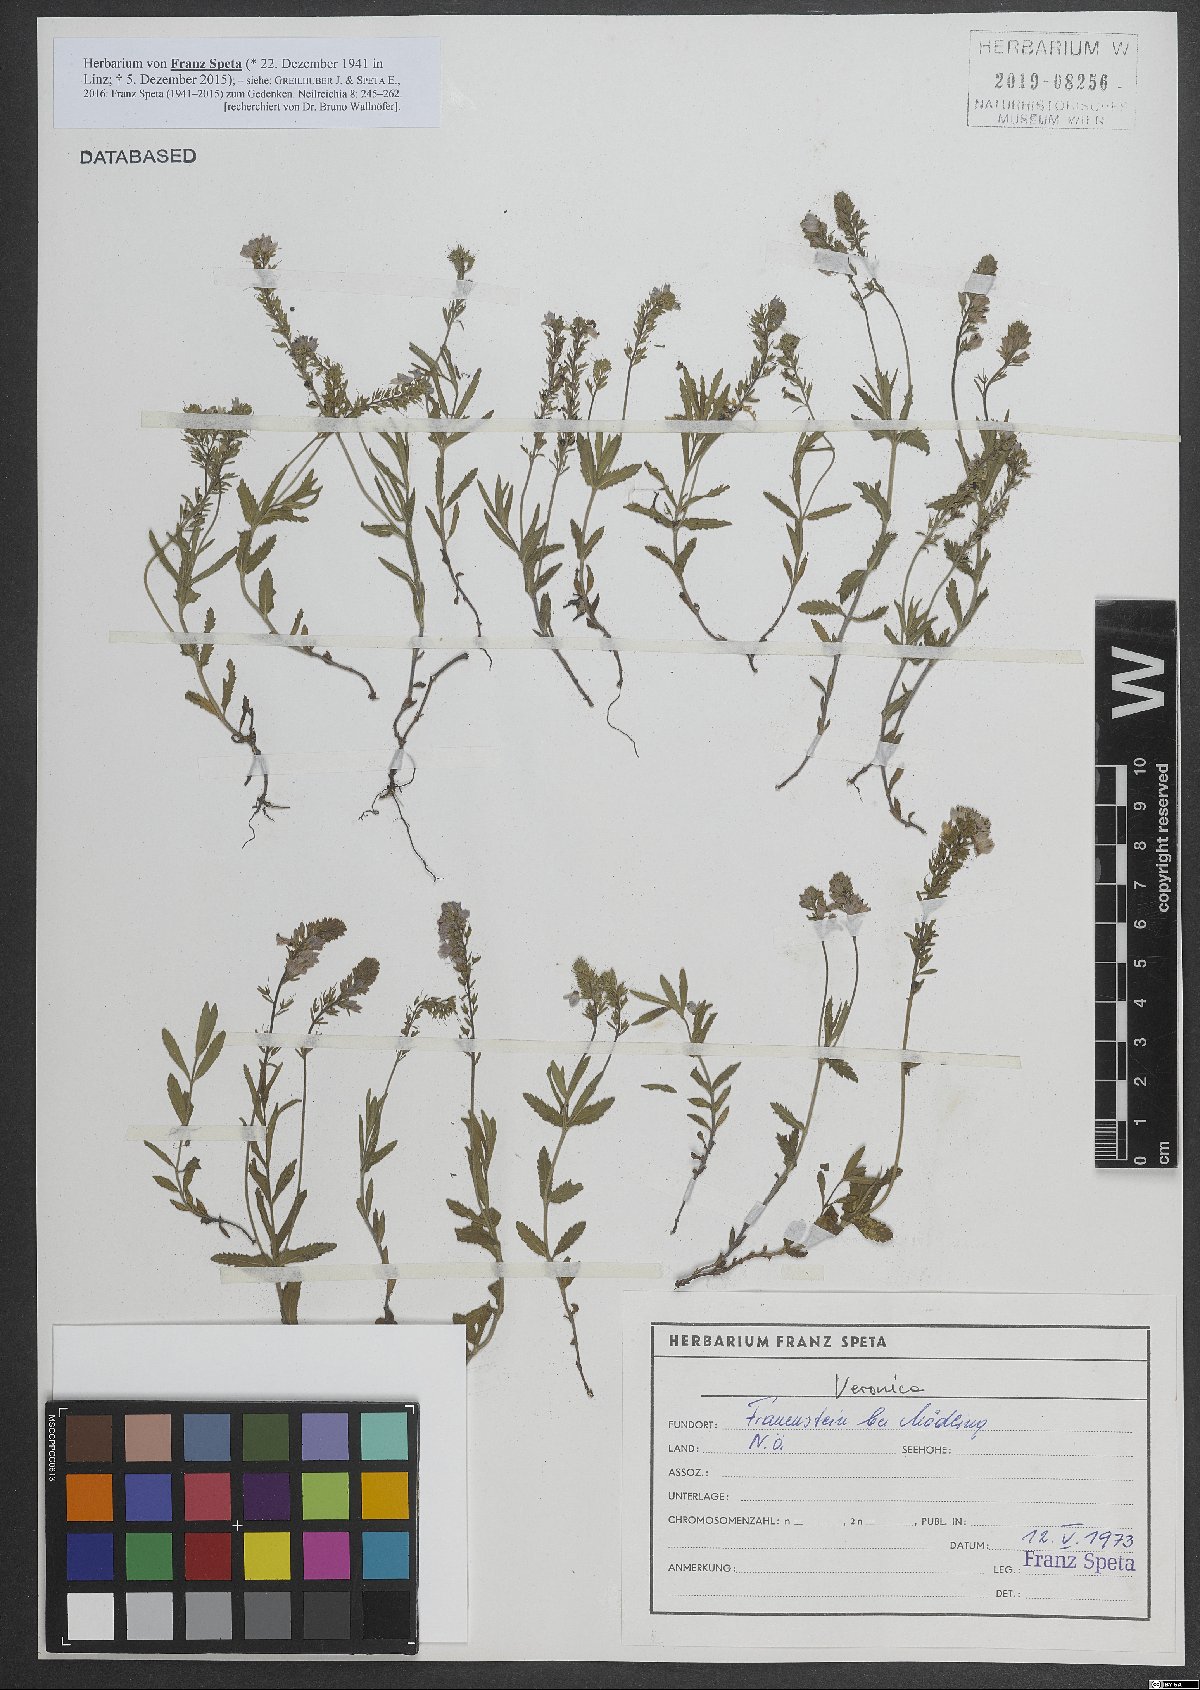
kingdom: Plantae
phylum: Tracheophyta
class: Magnoliopsida
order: Lamiales
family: Plantaginaceae
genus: Veronica
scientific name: Veronica
